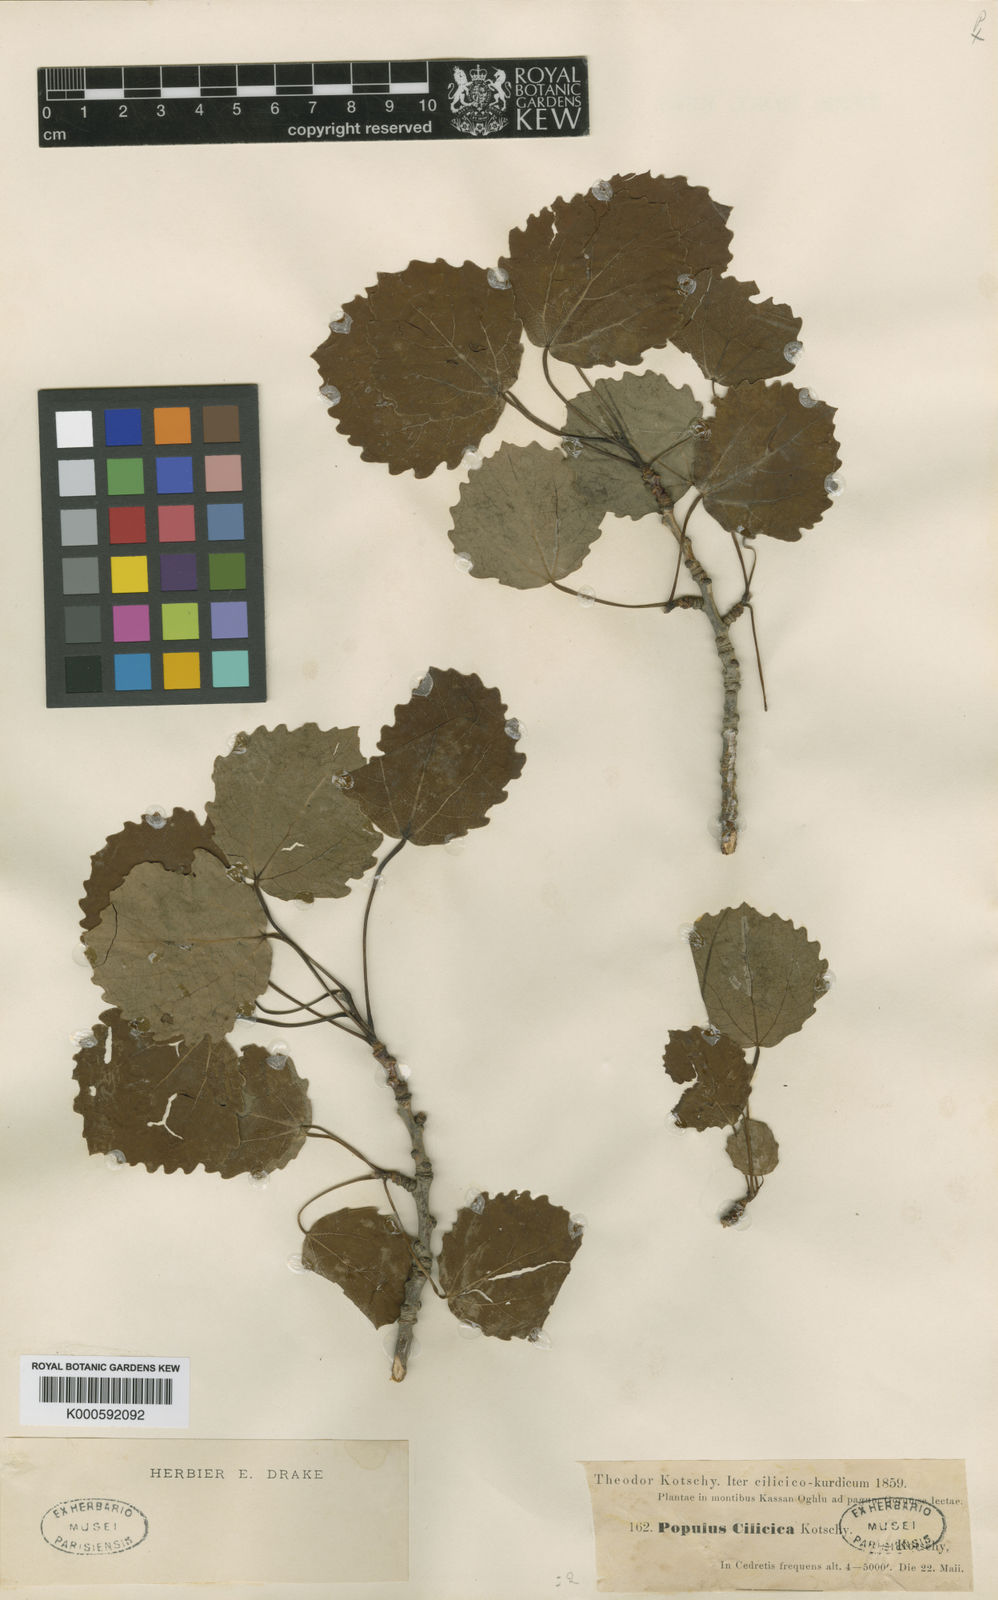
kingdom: Plantae
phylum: Tracheophyta
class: Magnoliopsida
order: Malpighiales
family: Salicaceae
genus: Populus
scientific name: Populus tremula
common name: European aspen
